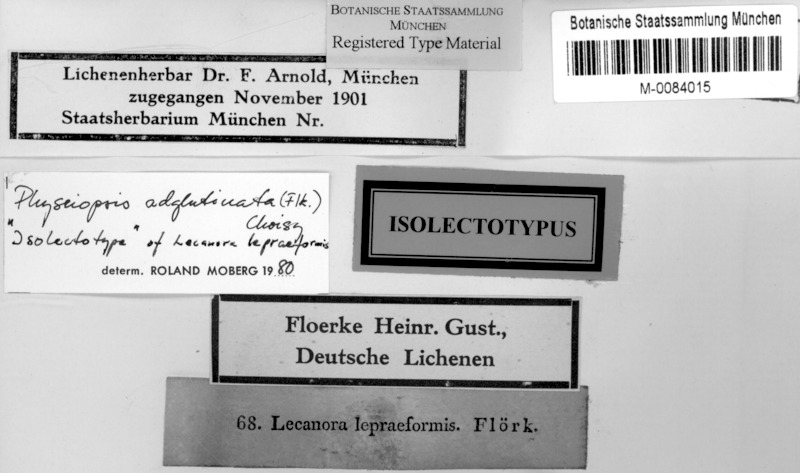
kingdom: Fungi
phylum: Ascomycota
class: Lecanoromycetes
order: Caliciales
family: Physciaceae
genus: Hyperphyscia
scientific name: Hyperphyscia adglutinata
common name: Grainy shadow-crust lichen
